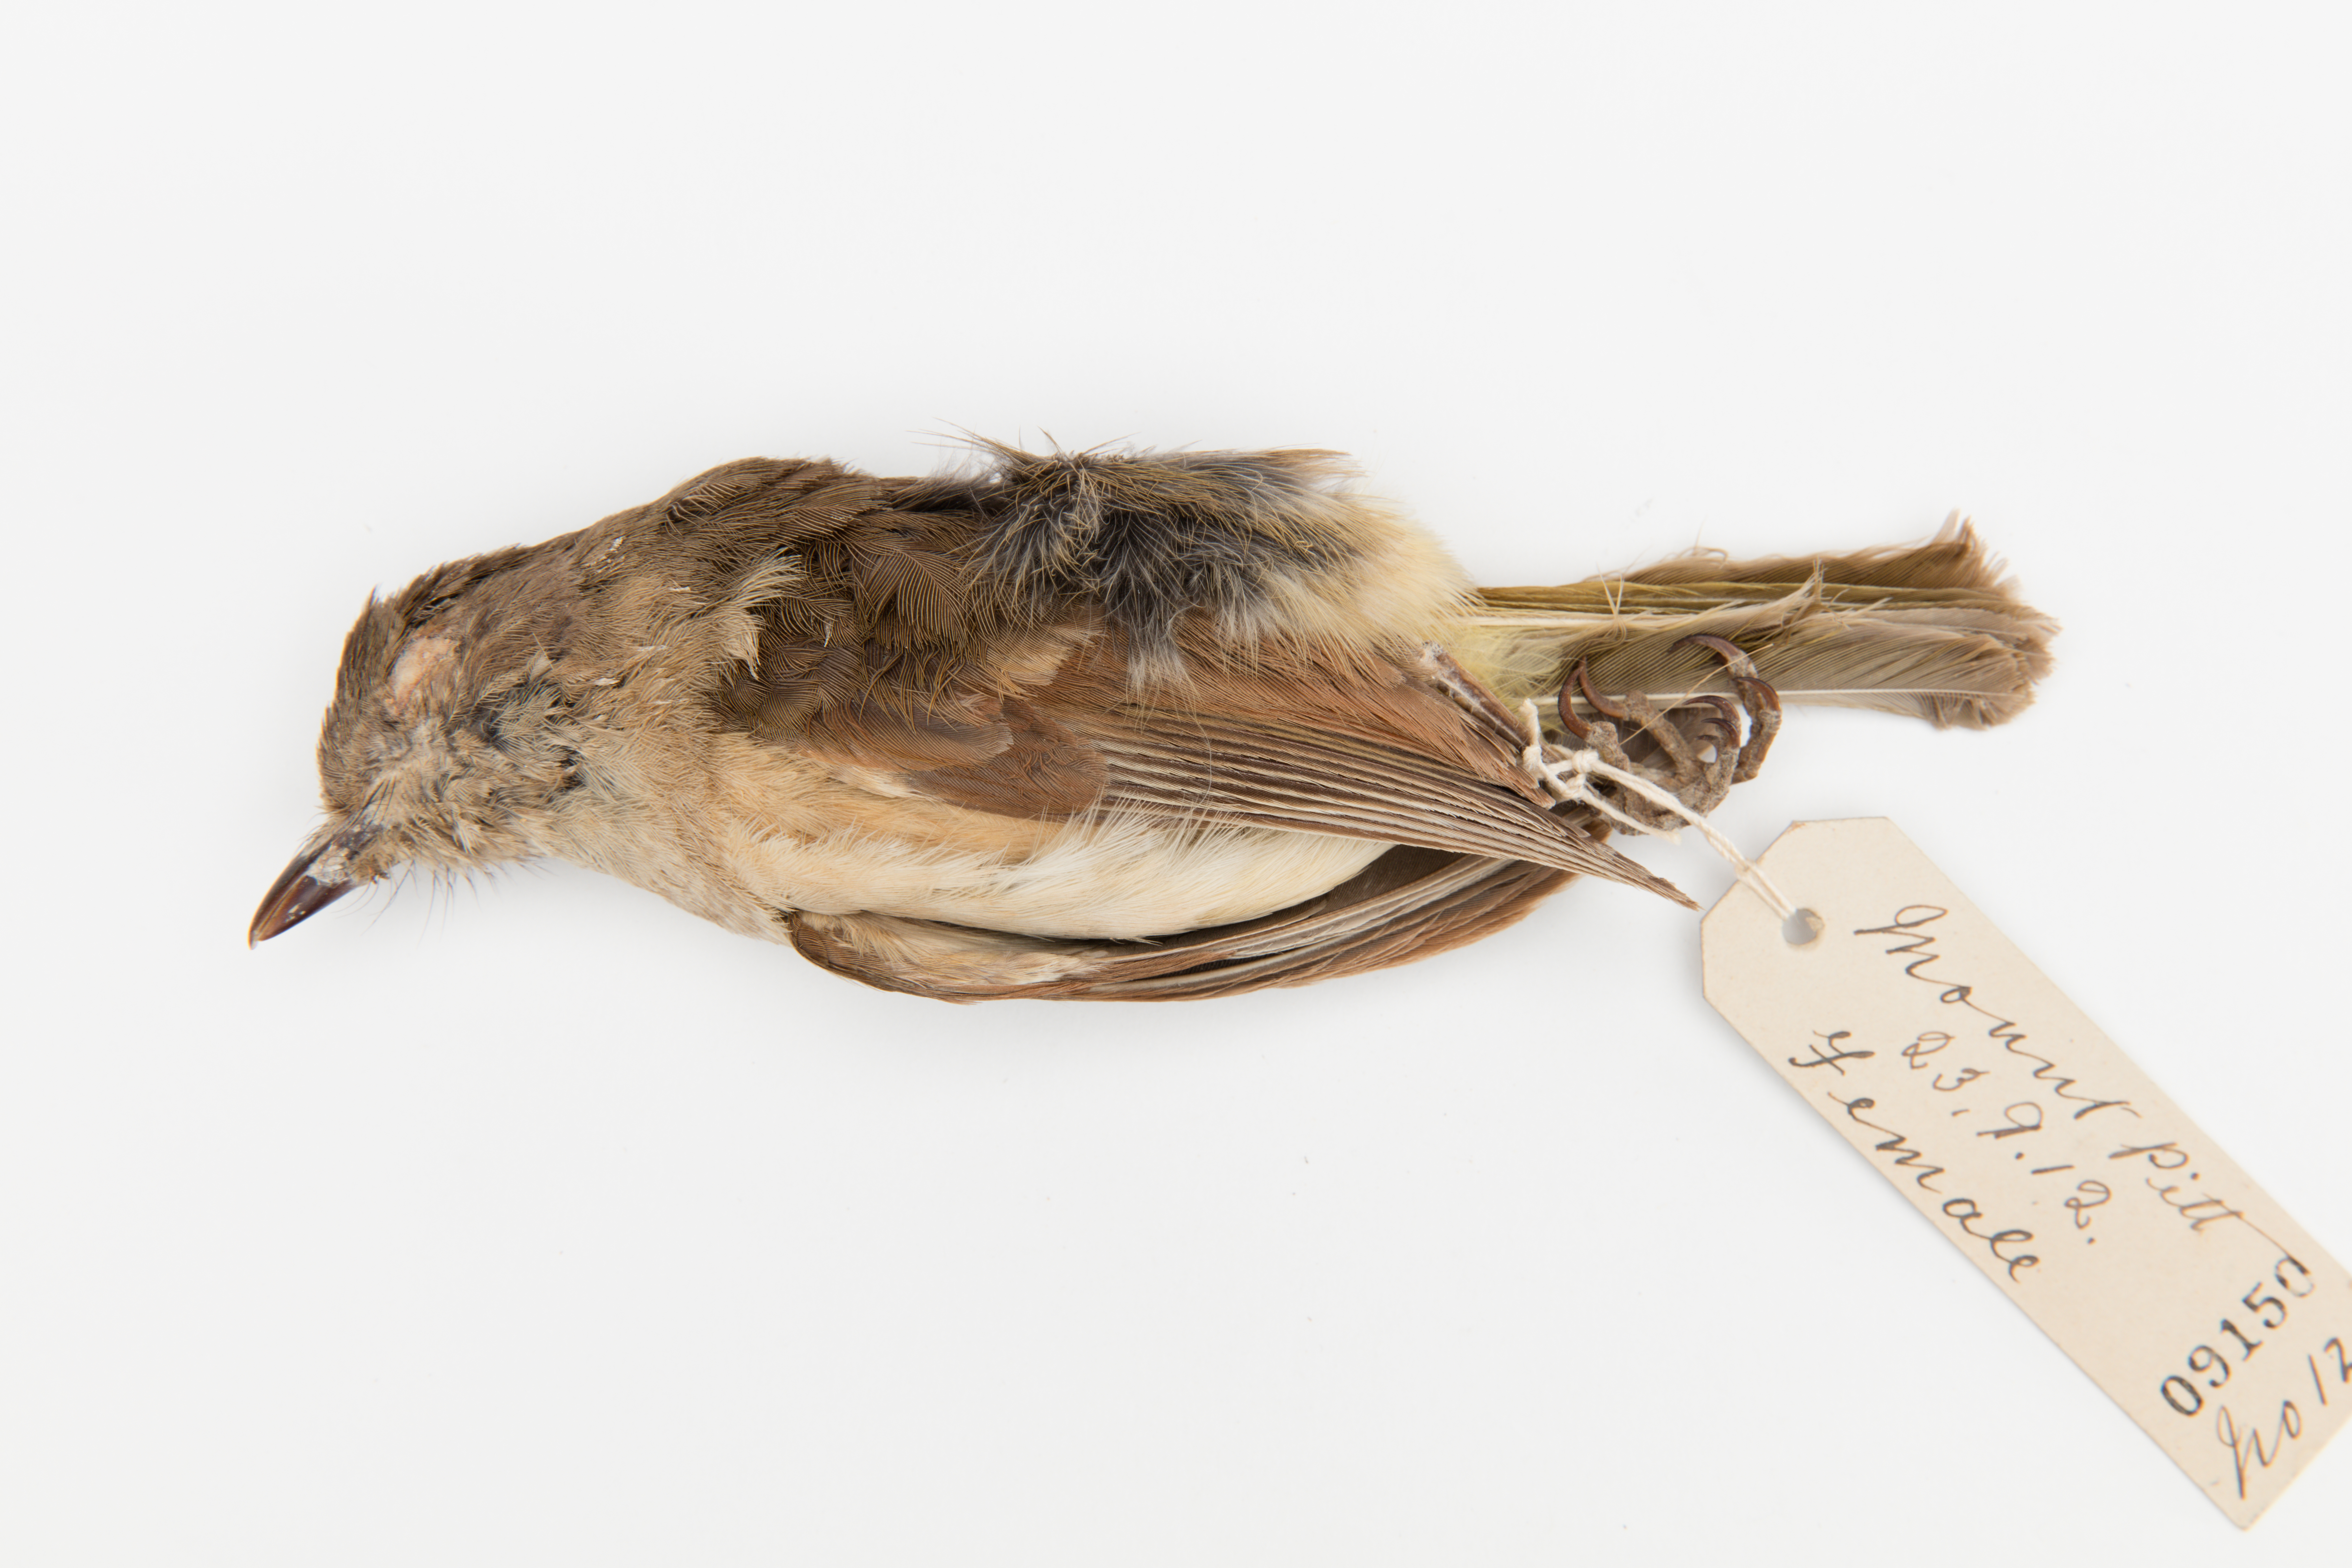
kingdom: Animalia
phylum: Chordata
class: Aves
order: Passeriformes
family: Pachycephalidae
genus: Pachycephala
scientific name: Pachycephala pectoralis
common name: Australian golden whistler
